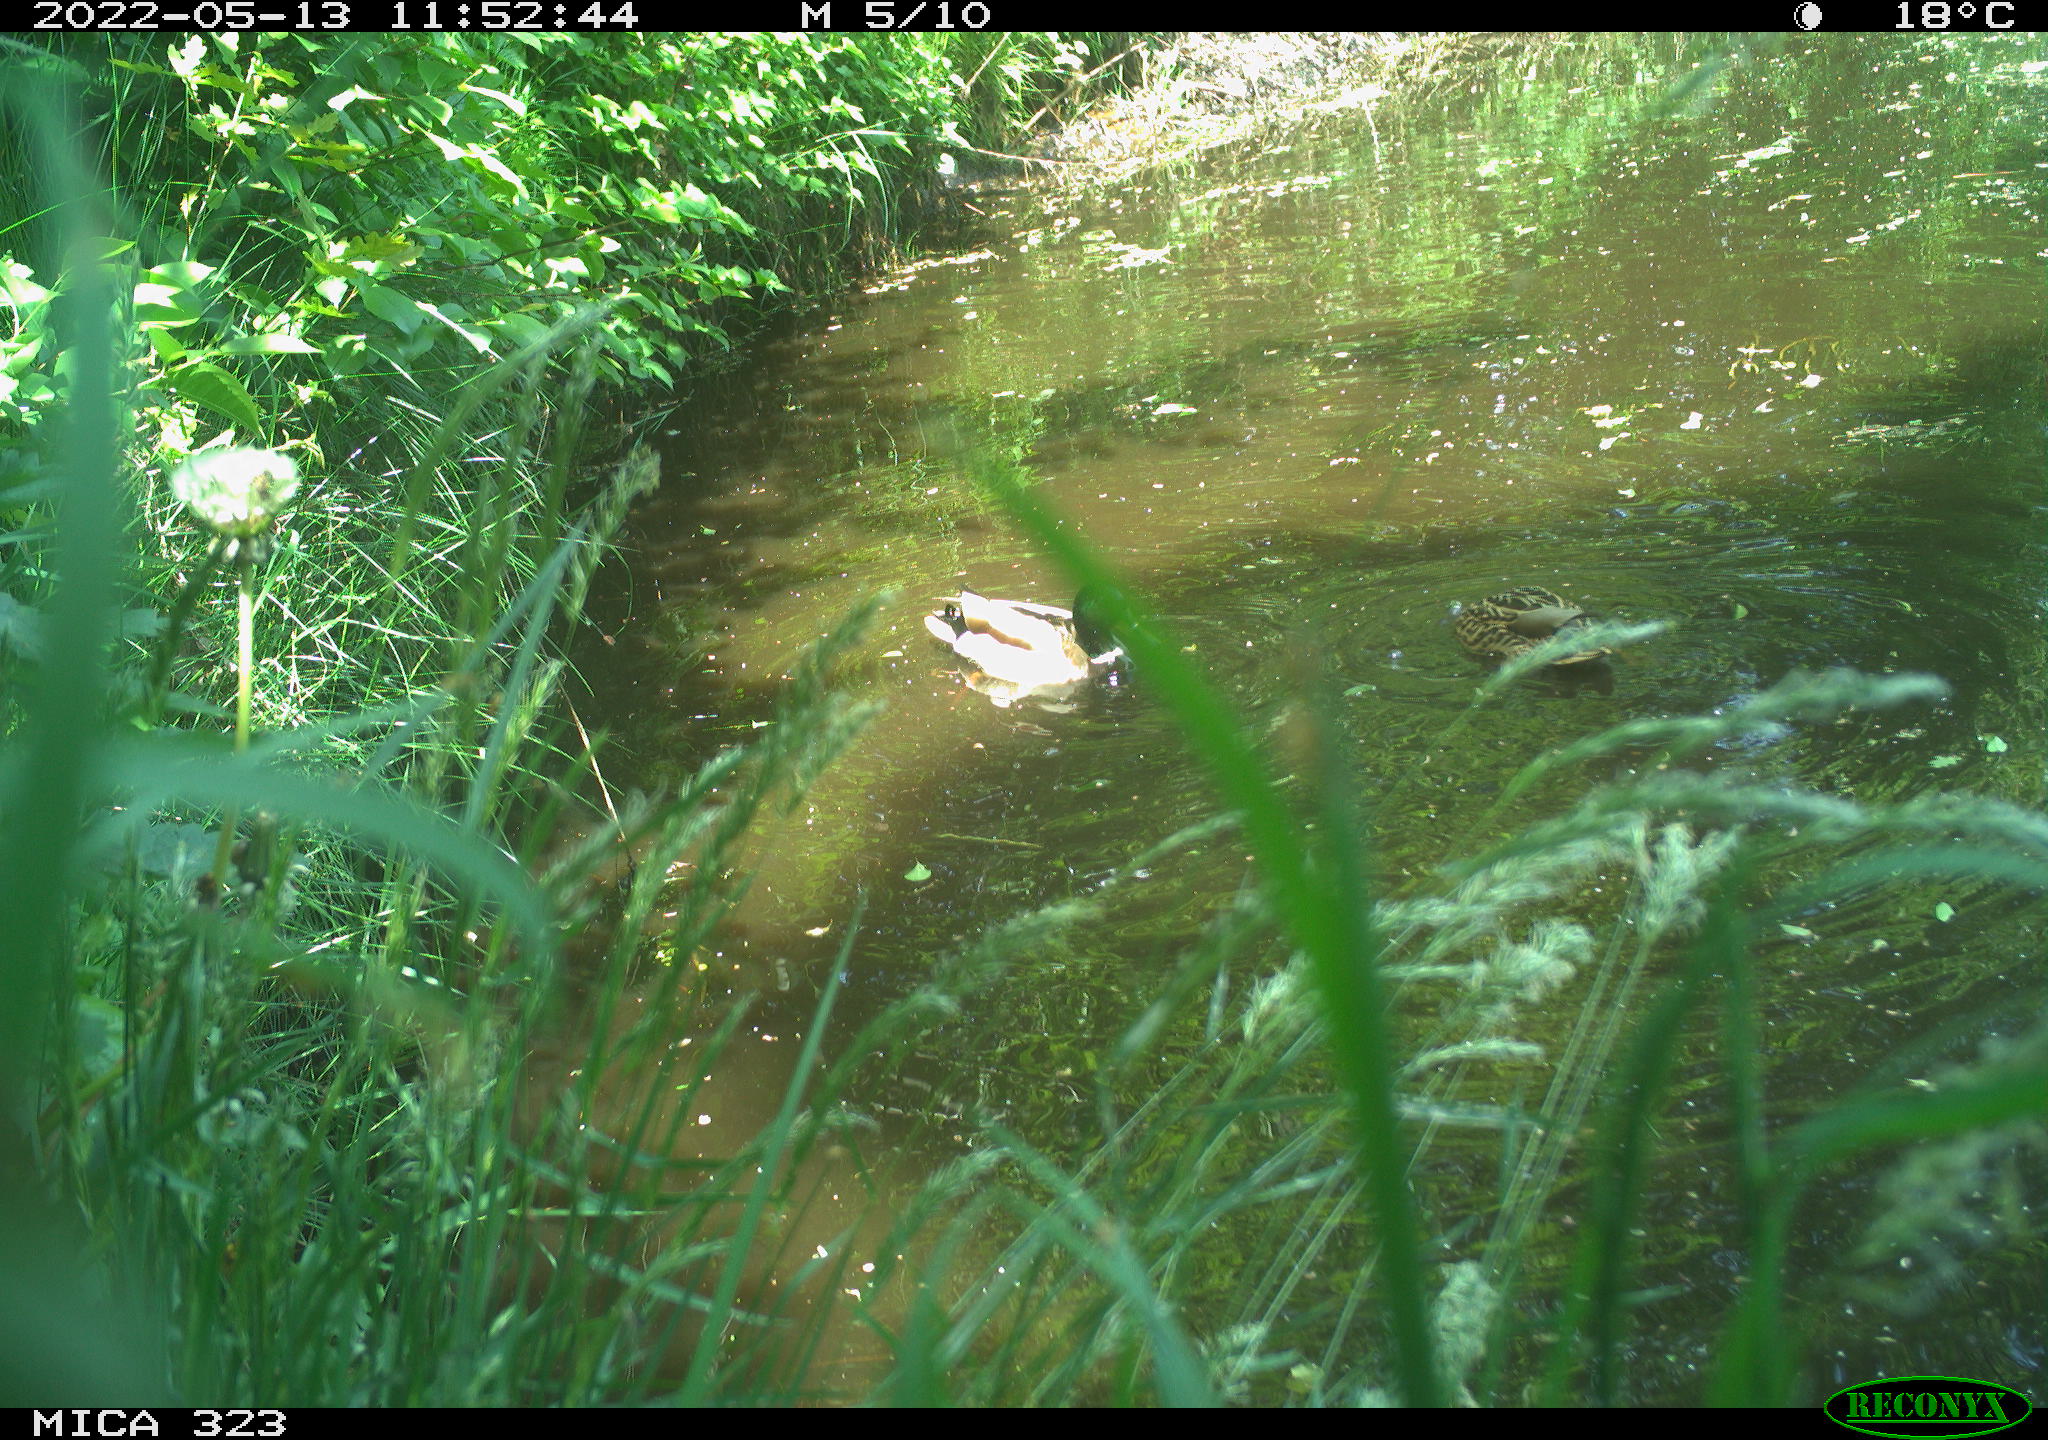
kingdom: Animalia
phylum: Chordata
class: Aves
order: Anseriformes
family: Anatidae
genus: Anas
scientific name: Anas platyrhynchos
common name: Mallard
